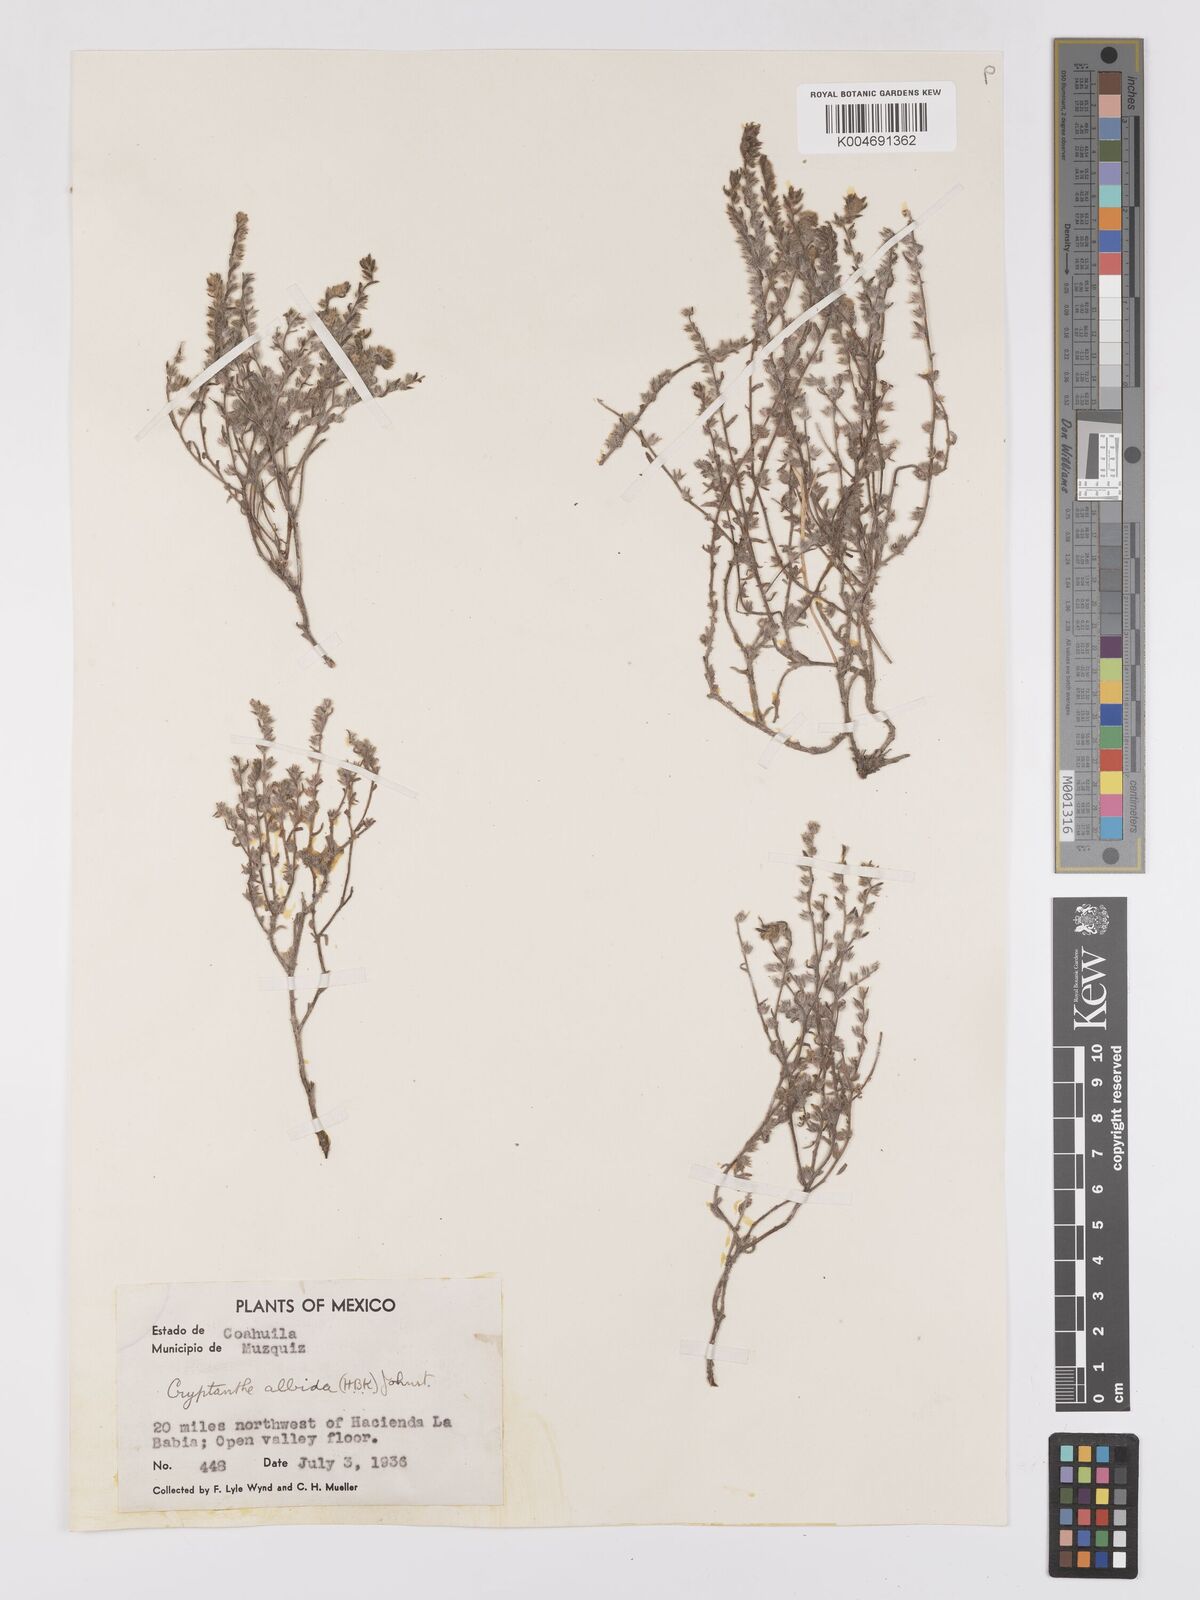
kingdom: Plantae
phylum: Tracheophyta
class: Magnoliopsida
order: Boraginales
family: Boraginaceae
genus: Johnstonella
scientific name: Johnstonella albida
